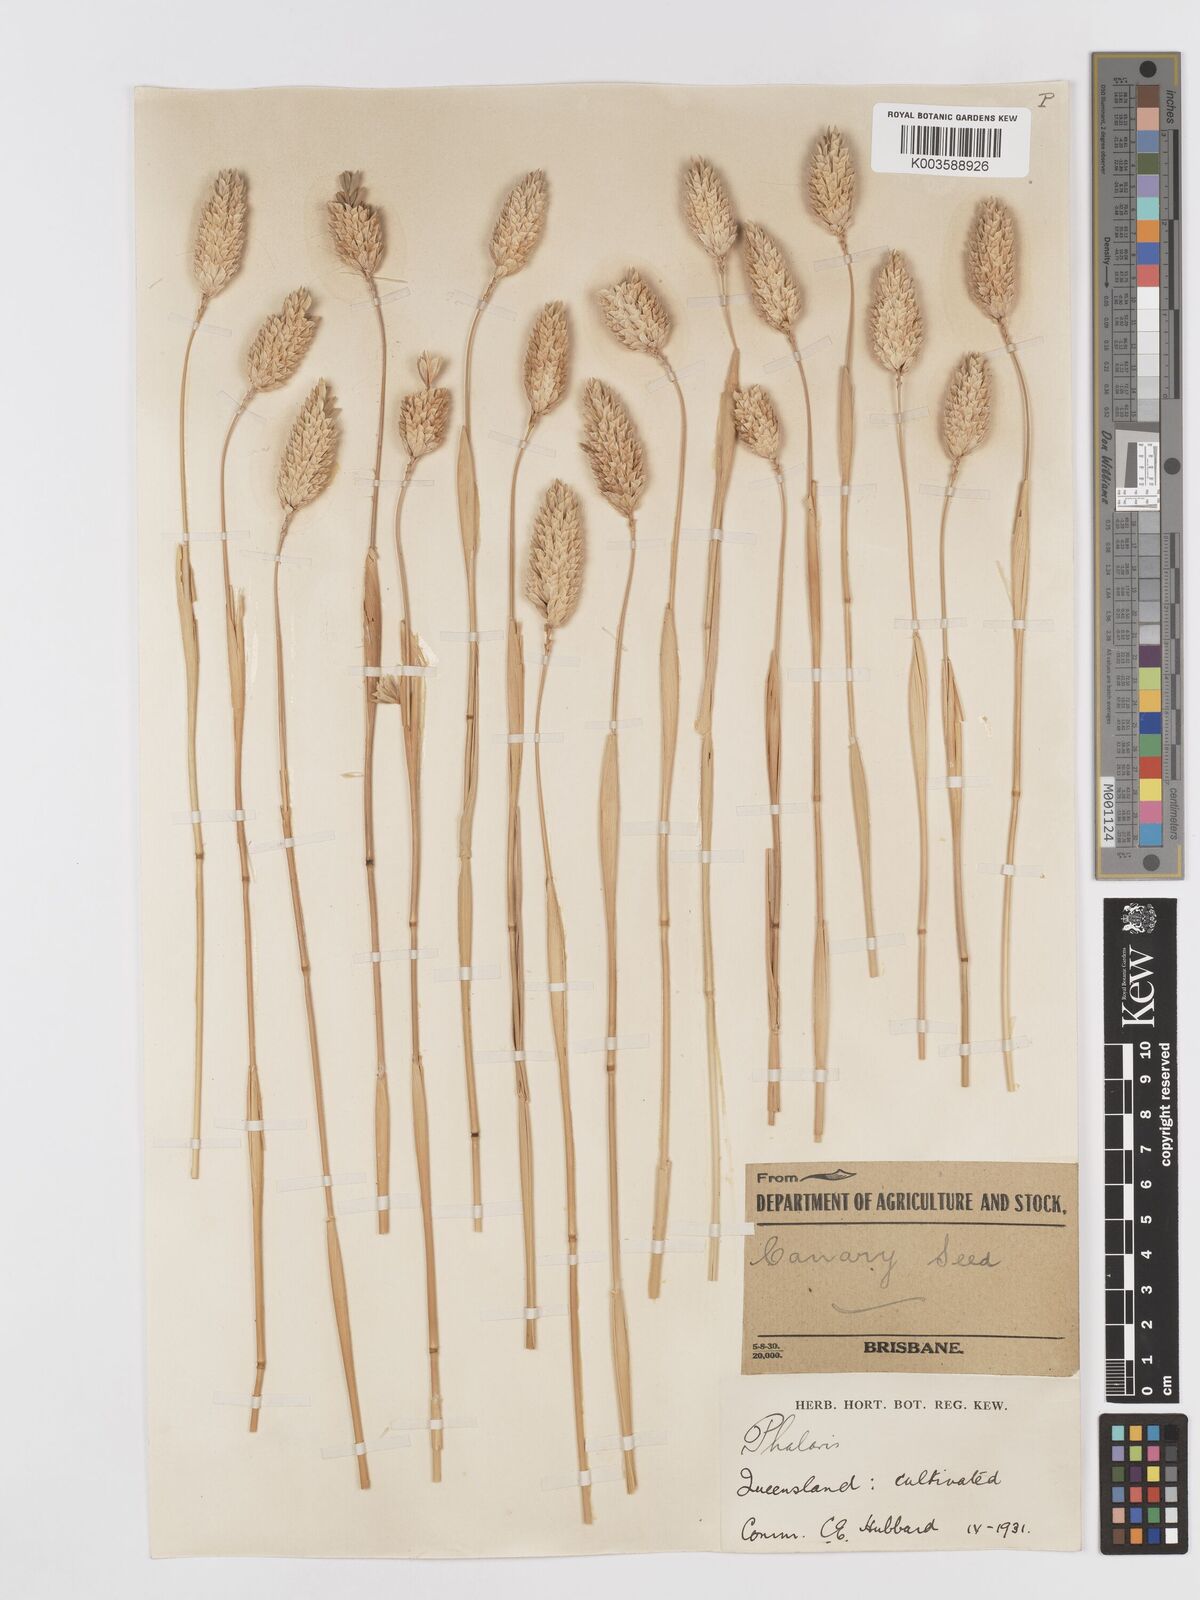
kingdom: Plantae
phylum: Tracheophyta
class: Liliopsida
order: Poales
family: Poaceae
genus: Phalaris
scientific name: Phalaris canariensis
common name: Annual canarygrass
